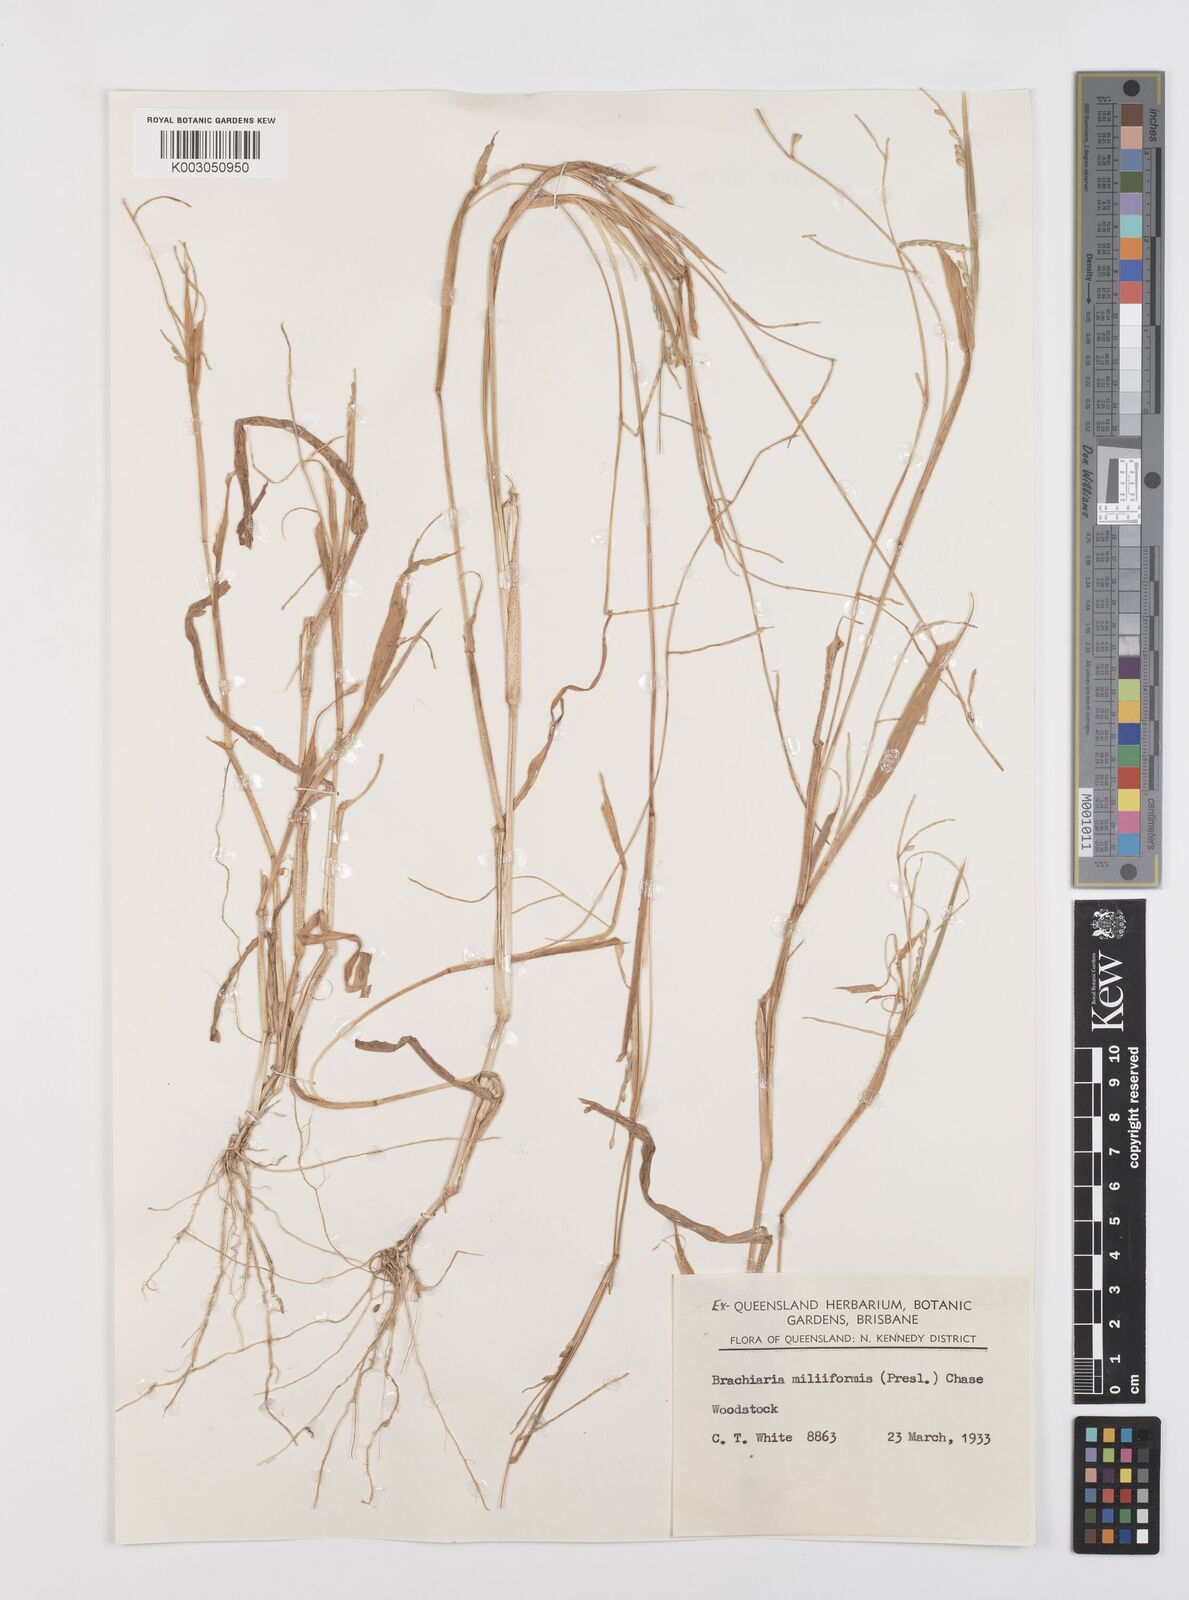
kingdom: Plantae
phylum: Tracheophyta
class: Liliopsida
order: Poales
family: Poaceae
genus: Urochloa
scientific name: Urochloa subquadripara
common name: Armgrass millet
